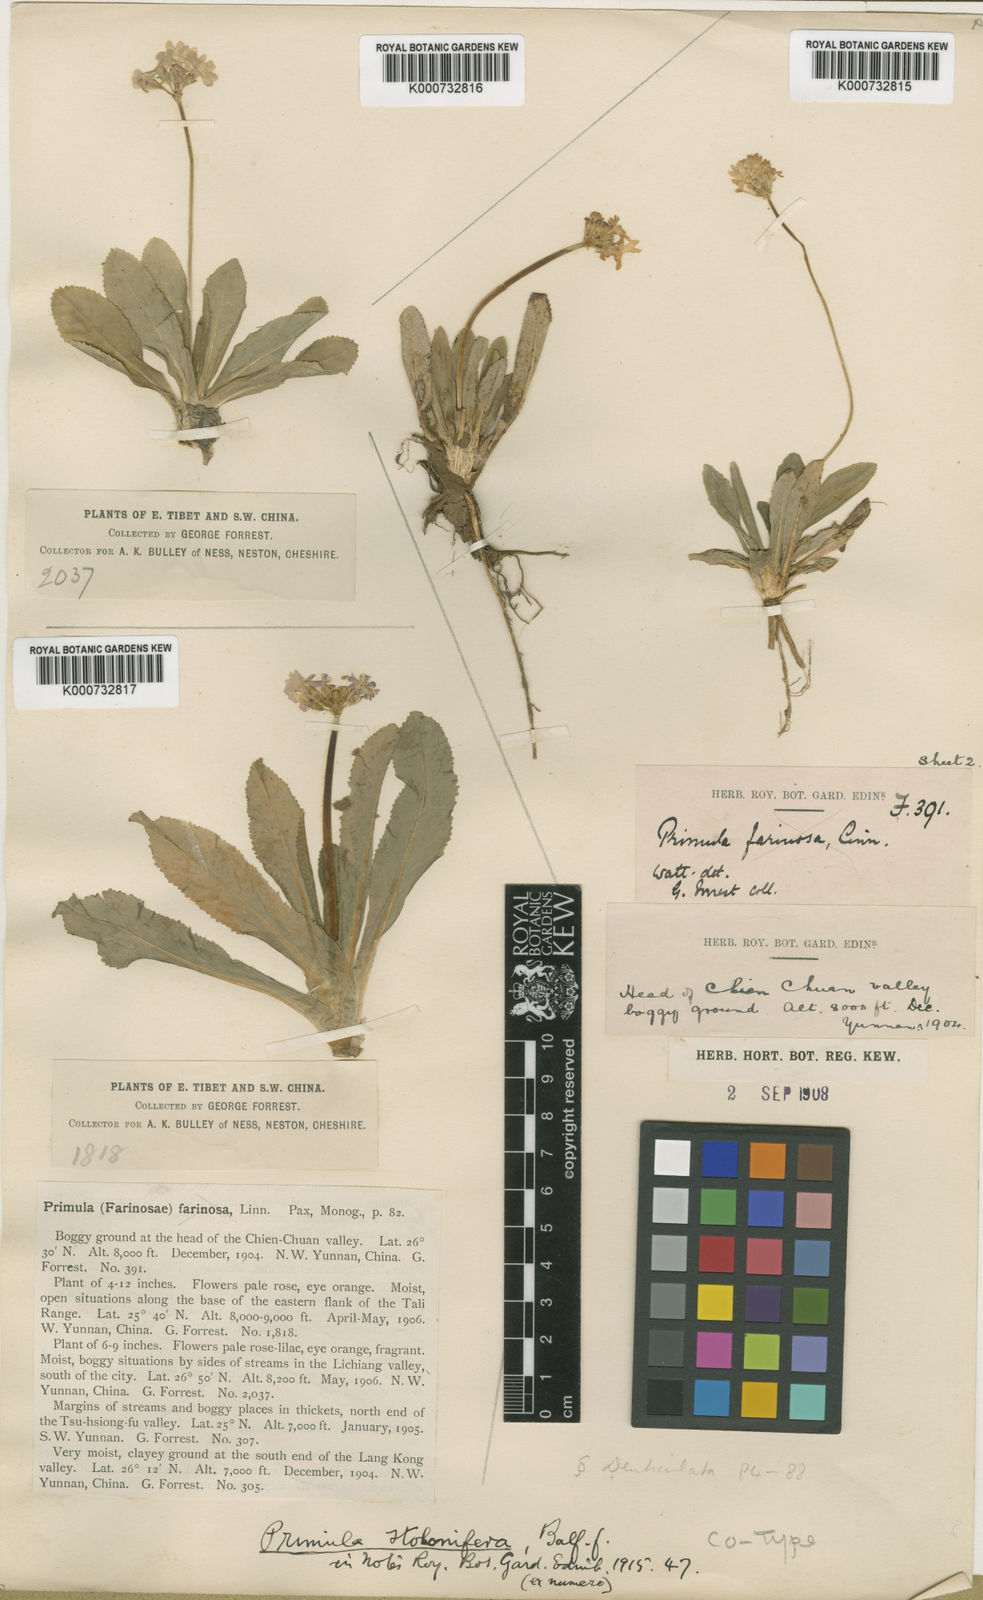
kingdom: Plantae
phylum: Tracheophyta
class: Magnoliopsida
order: Ericales
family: Primulaceae
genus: Primula
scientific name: Primula pseudodenticulata
